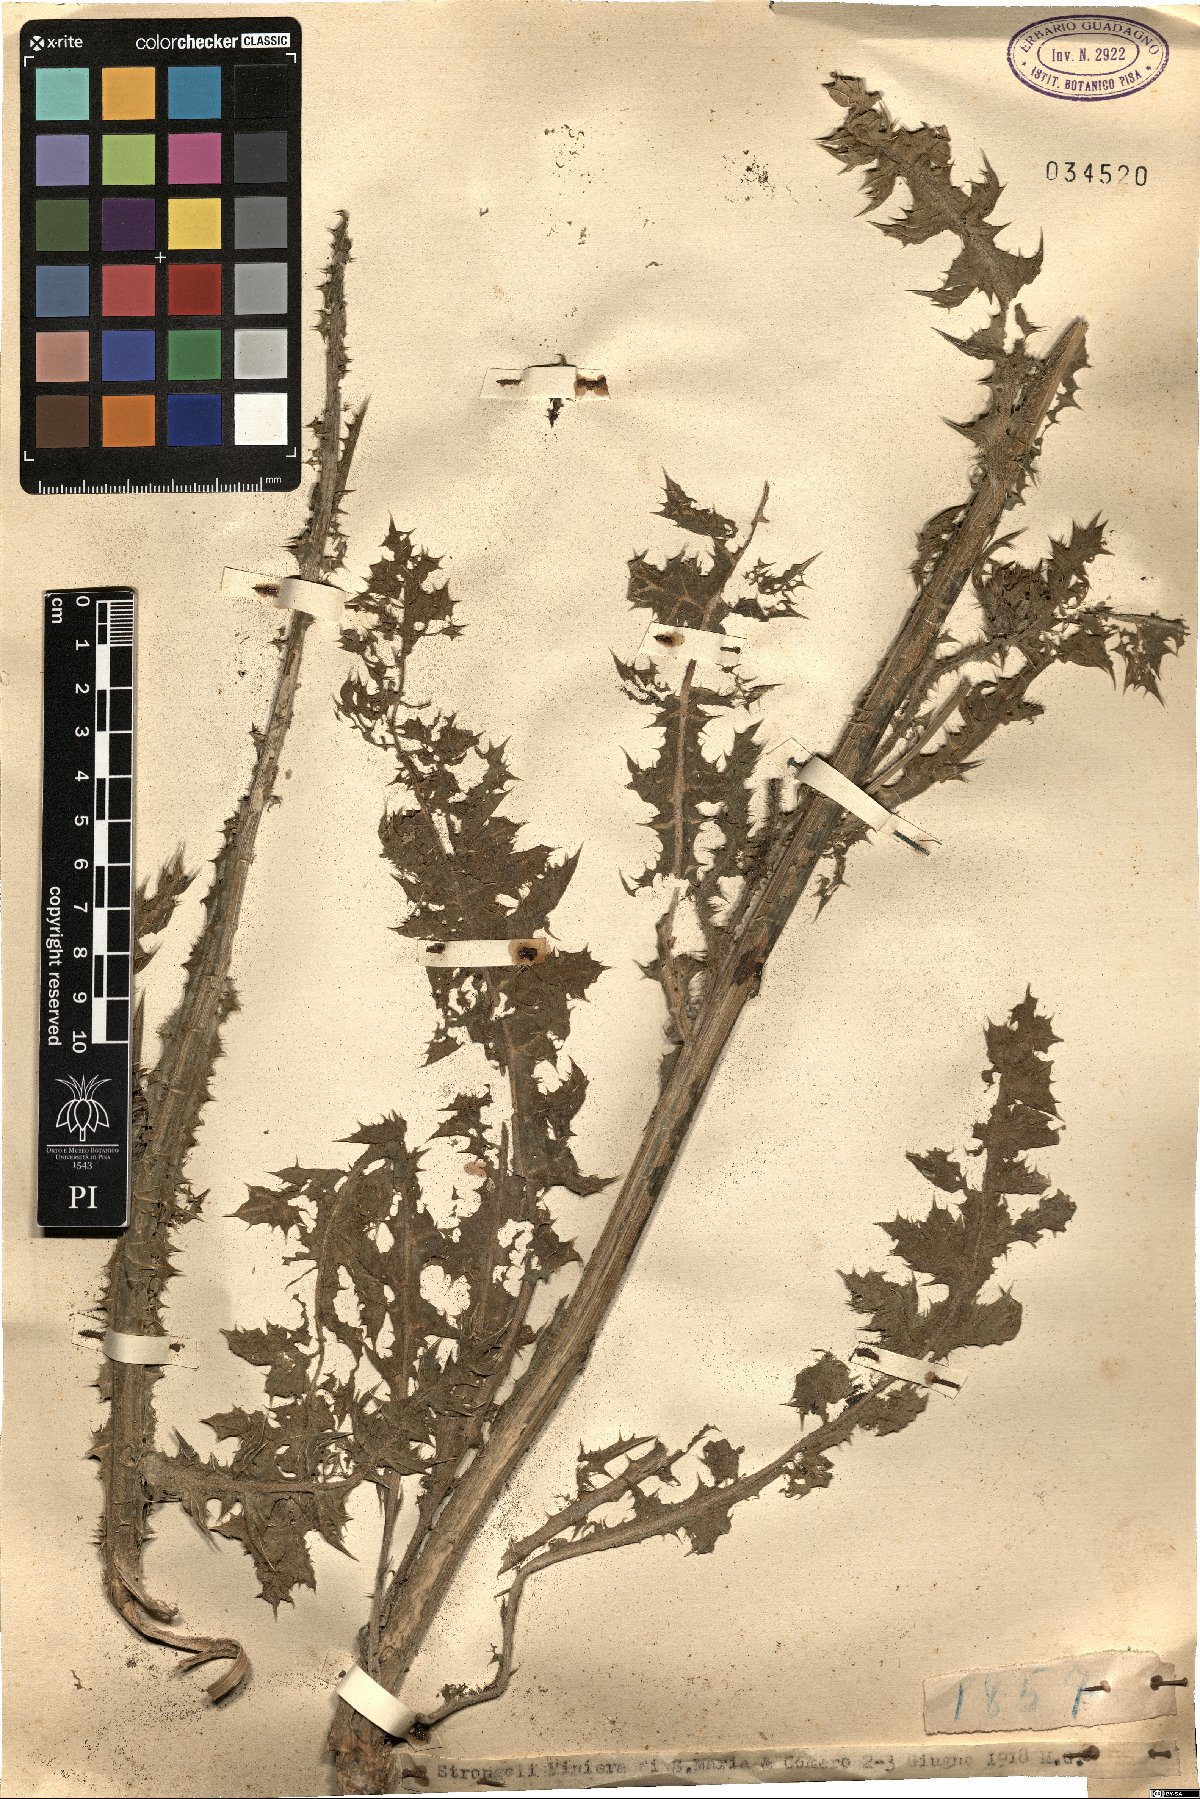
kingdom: Plantae
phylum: Tracheophyta
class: Magnoliopsida
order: Asterales
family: Asteraceae
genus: Scolymus
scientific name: Scolymus
